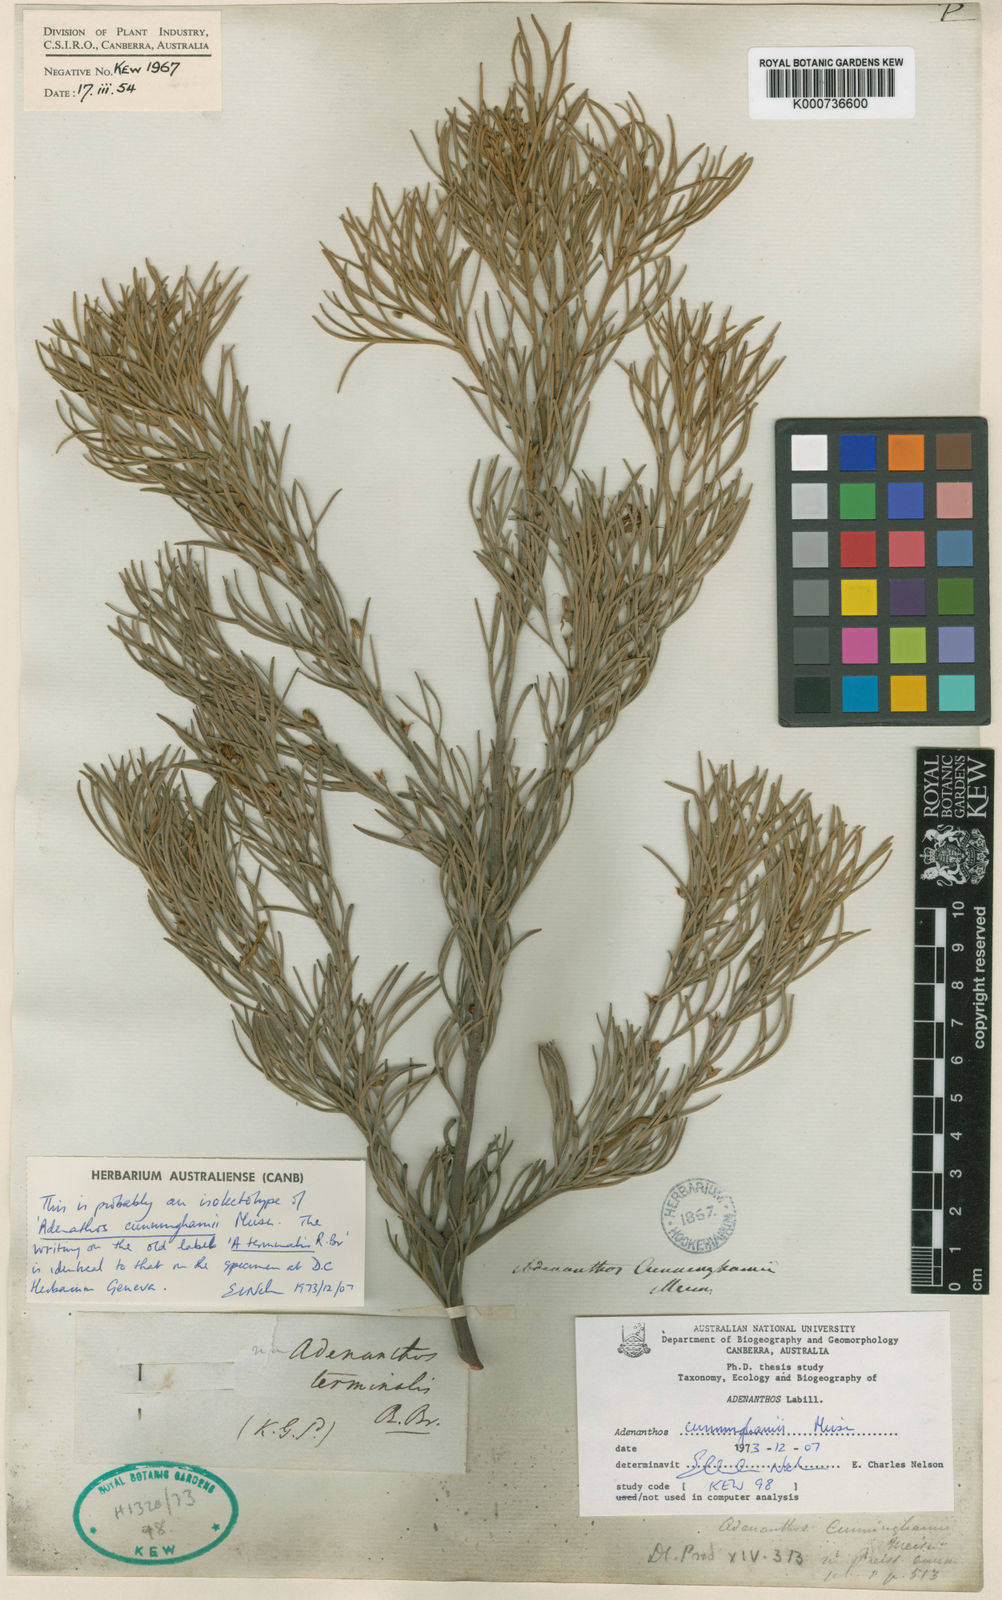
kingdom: Plantae
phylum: Tracheophyta
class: Magnoliopsida
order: Proteales
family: Proteaceae
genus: Adenanthos
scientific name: Adenanthos cunninghamii
